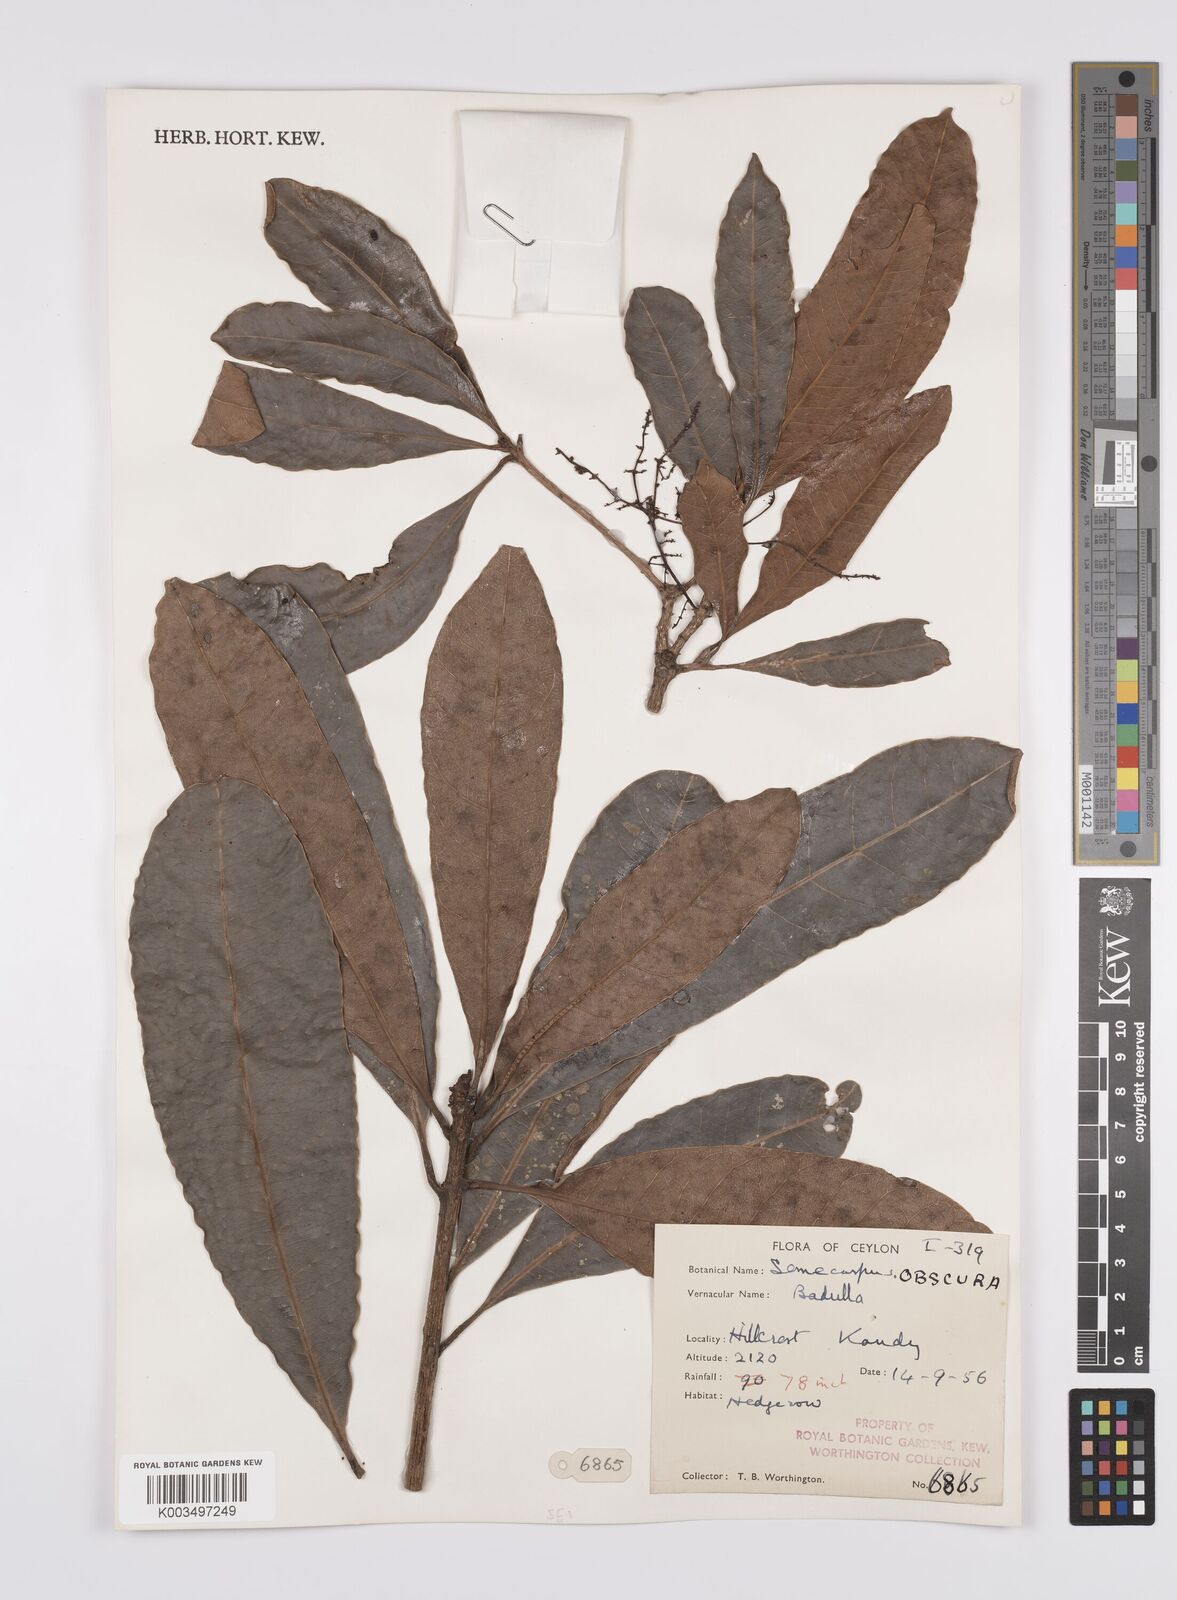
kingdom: Plantae
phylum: Tracheophyta
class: Magnoliopsida
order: Sapindales
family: Anacardiaceae
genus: Semecarpus
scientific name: Semecarpus walkeri
